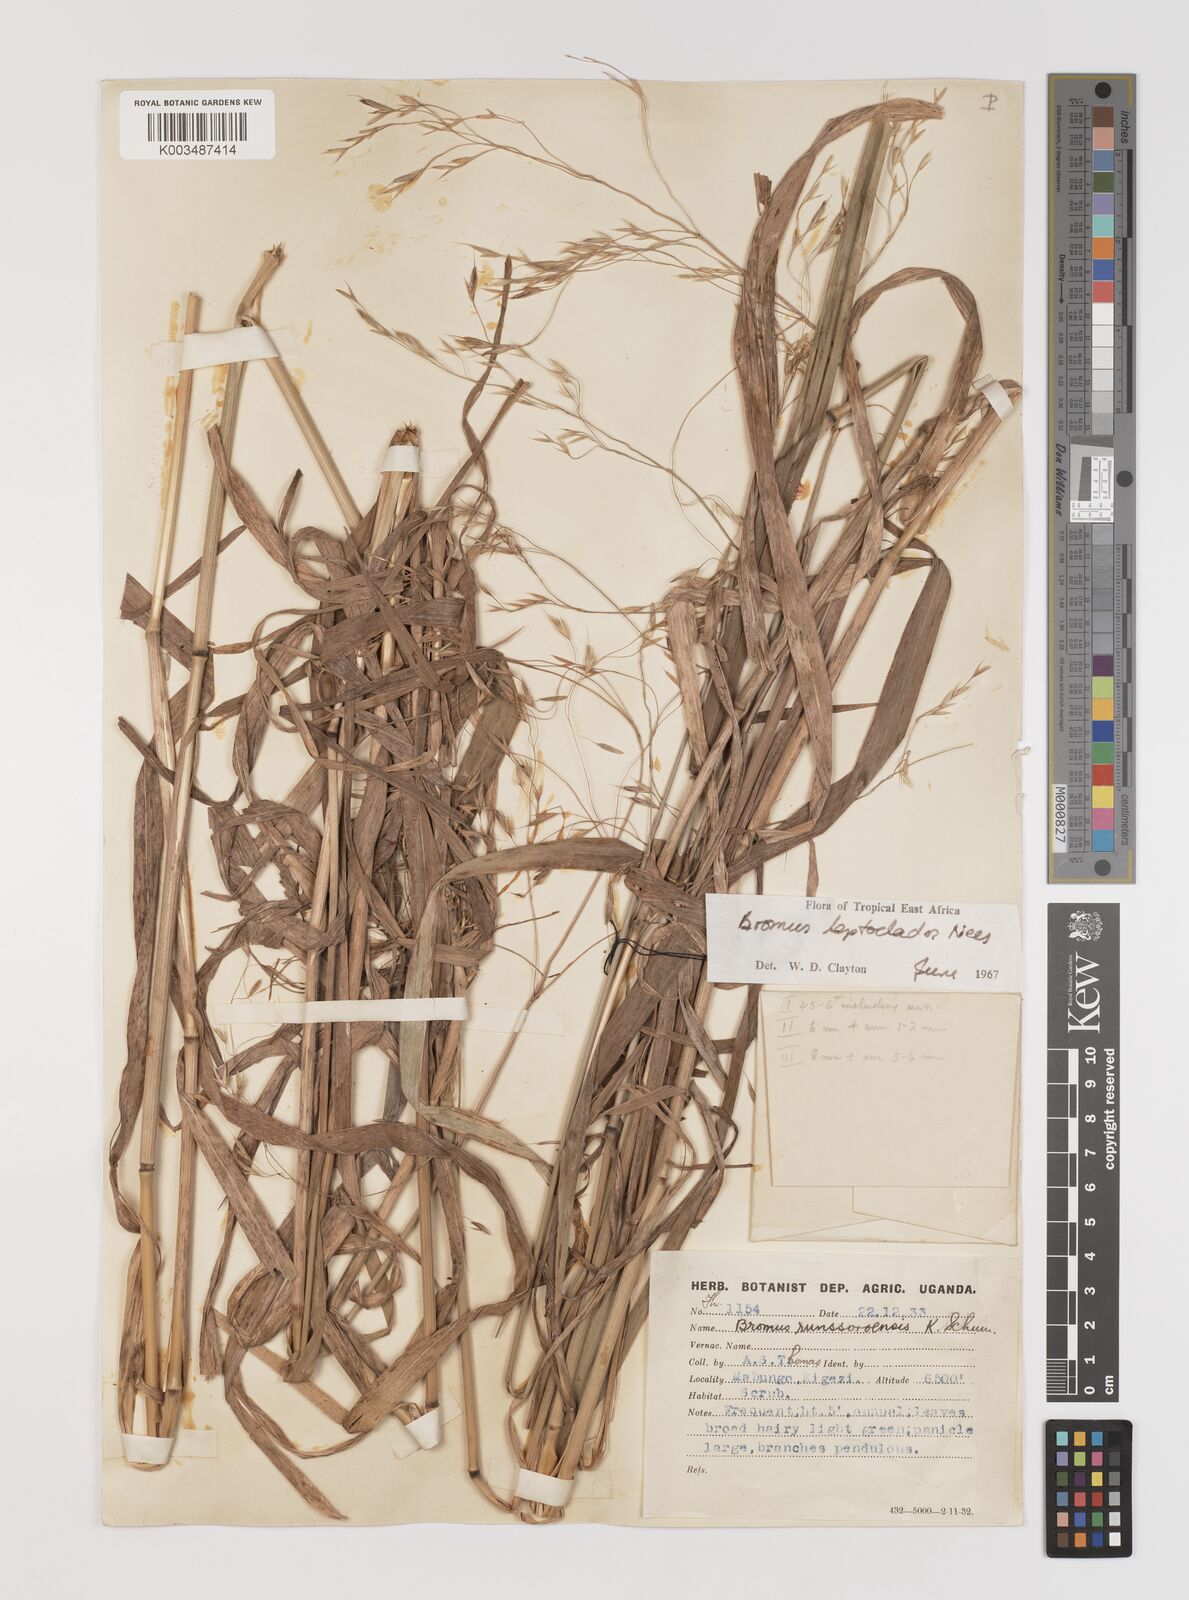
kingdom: Plantae
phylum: Tracheophyta
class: Liliopsida
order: Poales
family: Poaceae
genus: Bromus
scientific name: Bromus leptoclados
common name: Mountain bromegrass
